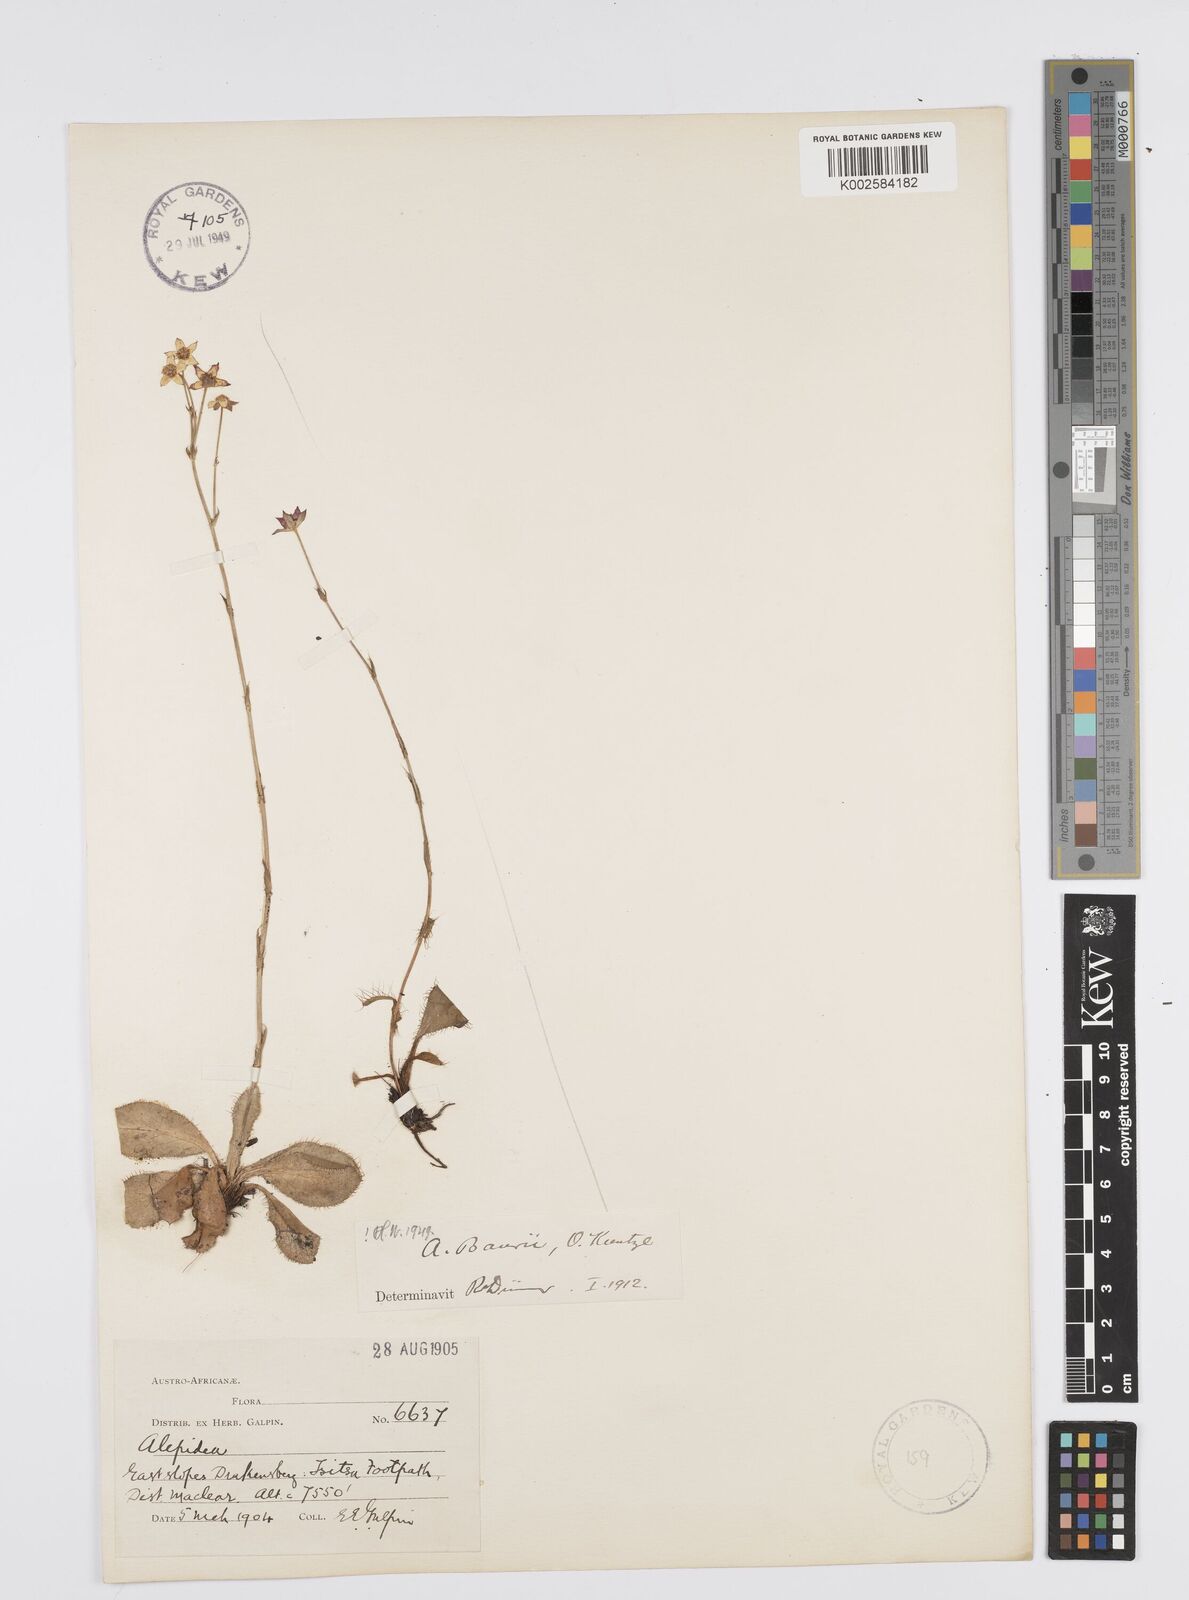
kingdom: Plantae
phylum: Tracheophyta
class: Magnoliopsida
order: Apiales
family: Apiaceae
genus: Alepidea
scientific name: Alepidea natalensis
